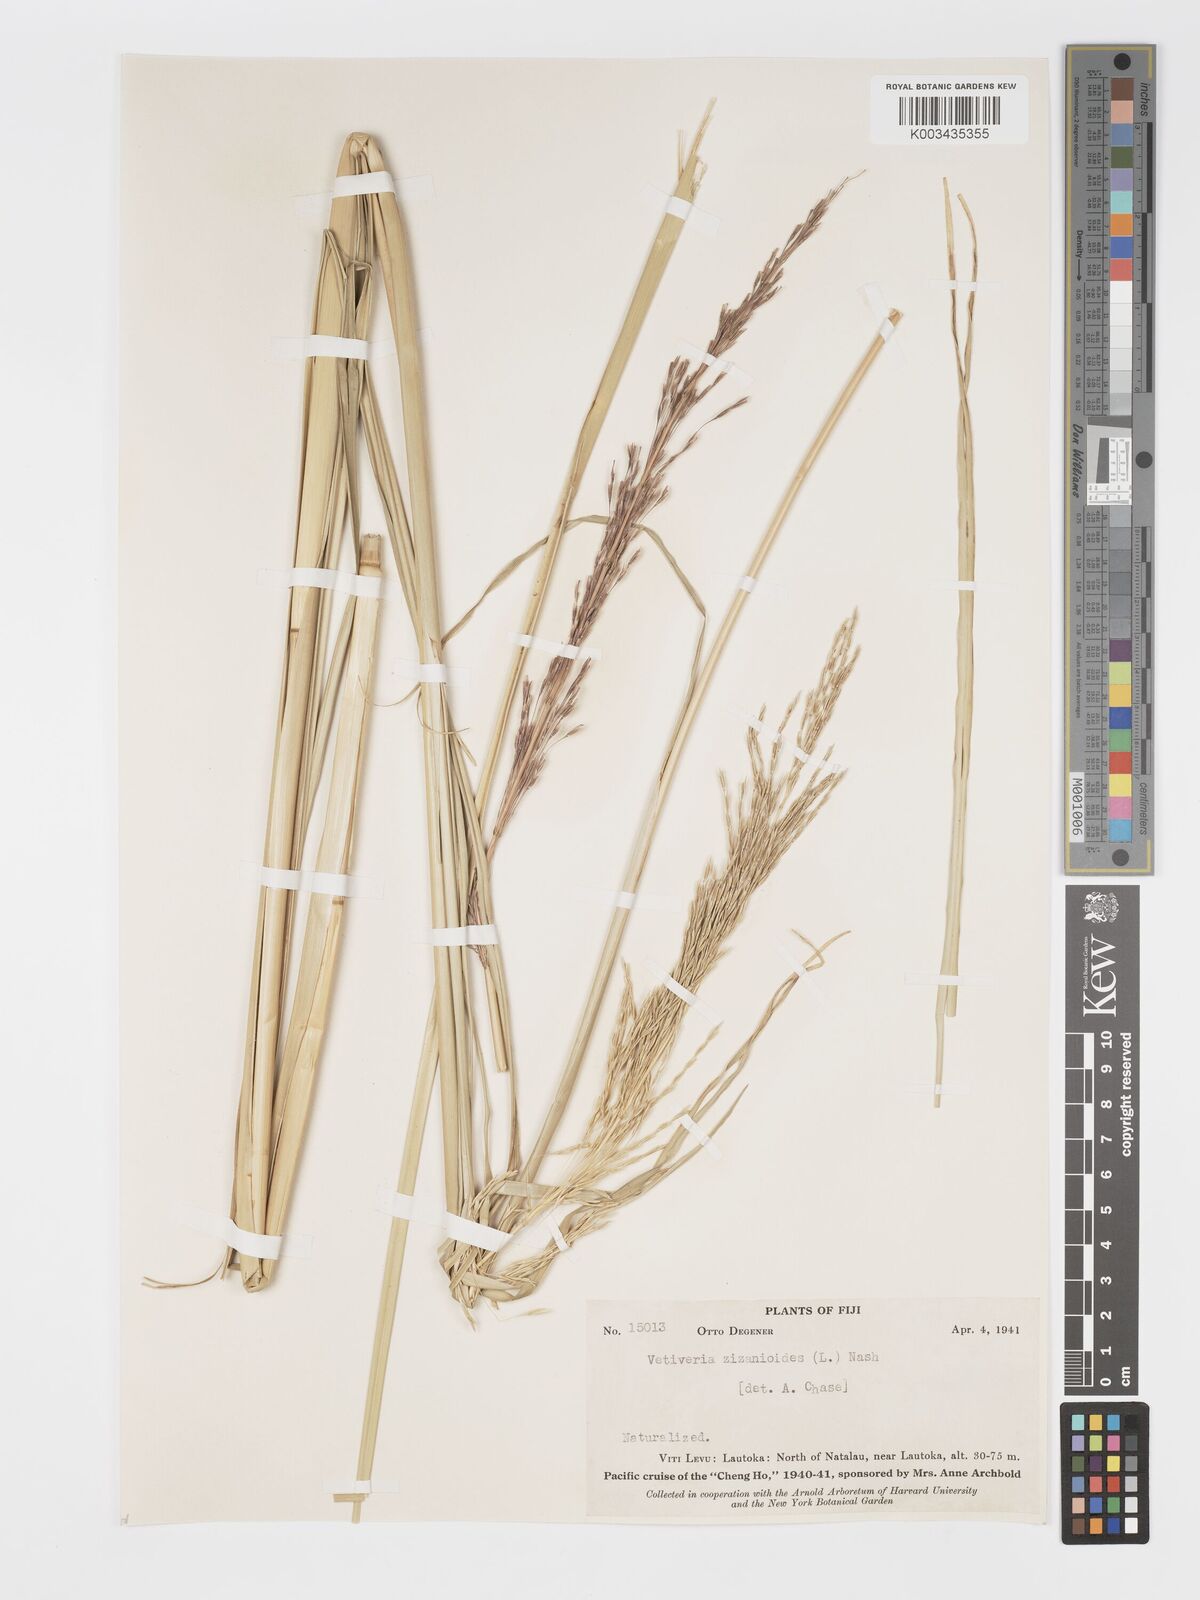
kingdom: Plantae
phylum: Tracheophyta
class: Liliopsida
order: Poales
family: Poaceae
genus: Chrysopogon
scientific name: Chrysopogon zizanioides
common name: False beardgrass
